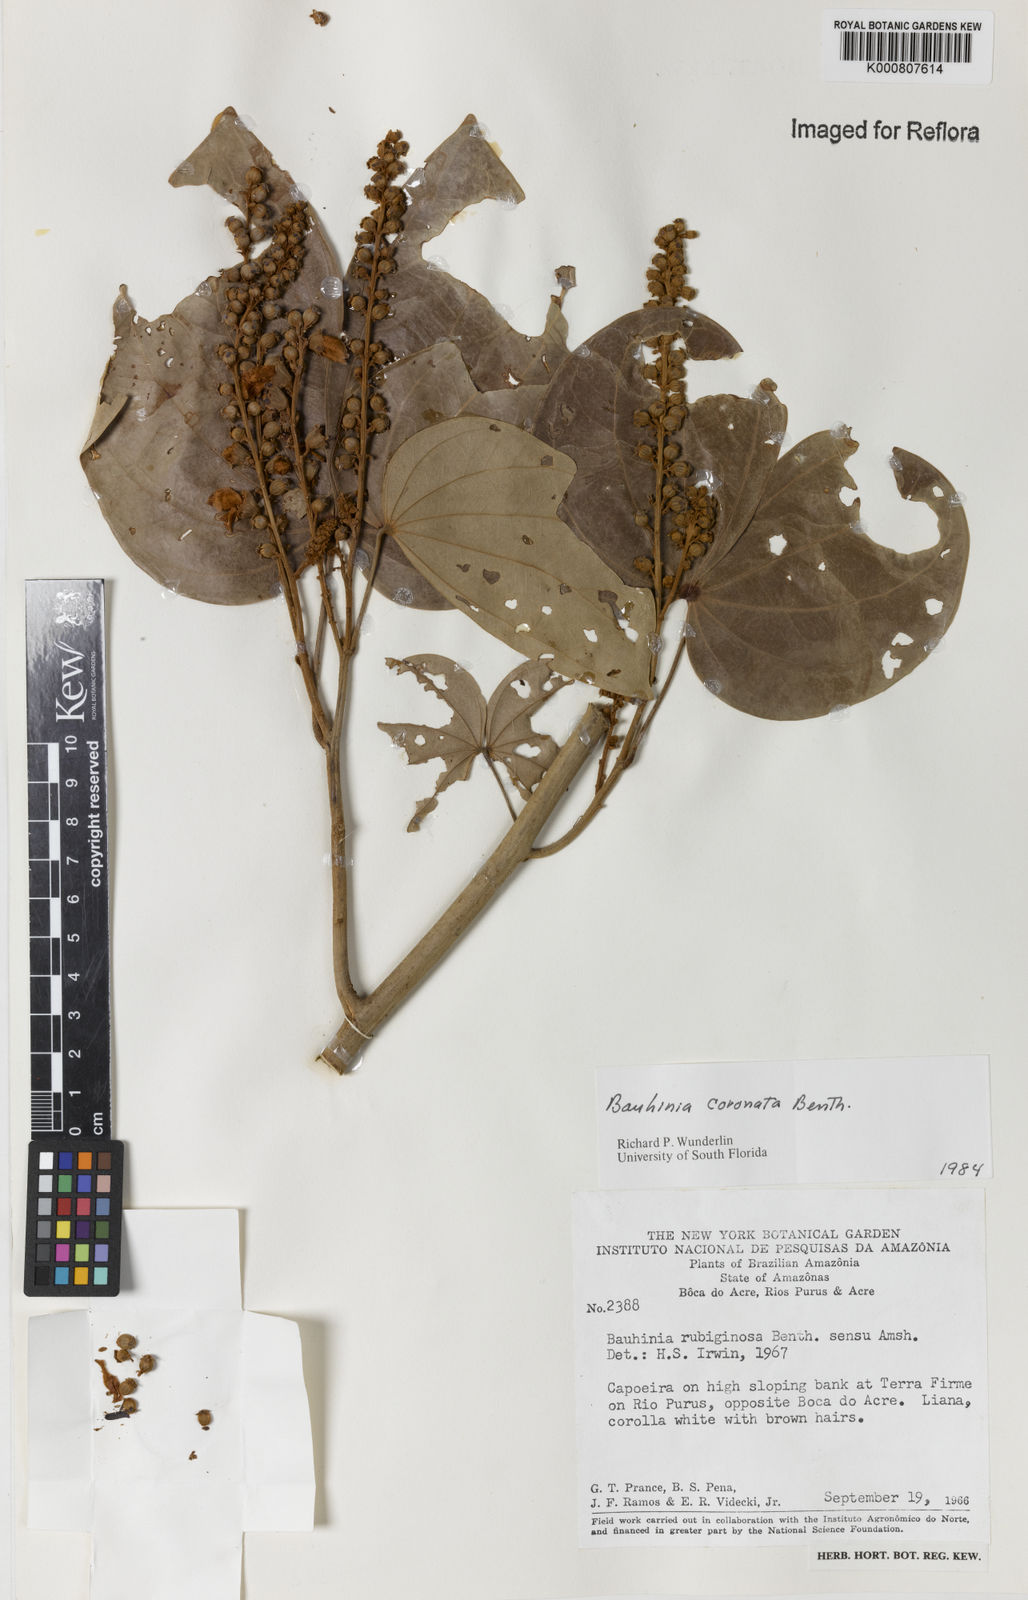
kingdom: Plantae
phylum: Tracheophyta
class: Magnoliopsida
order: Fabales
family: Fabaceae
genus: Schnella
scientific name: Schnella outimouta
